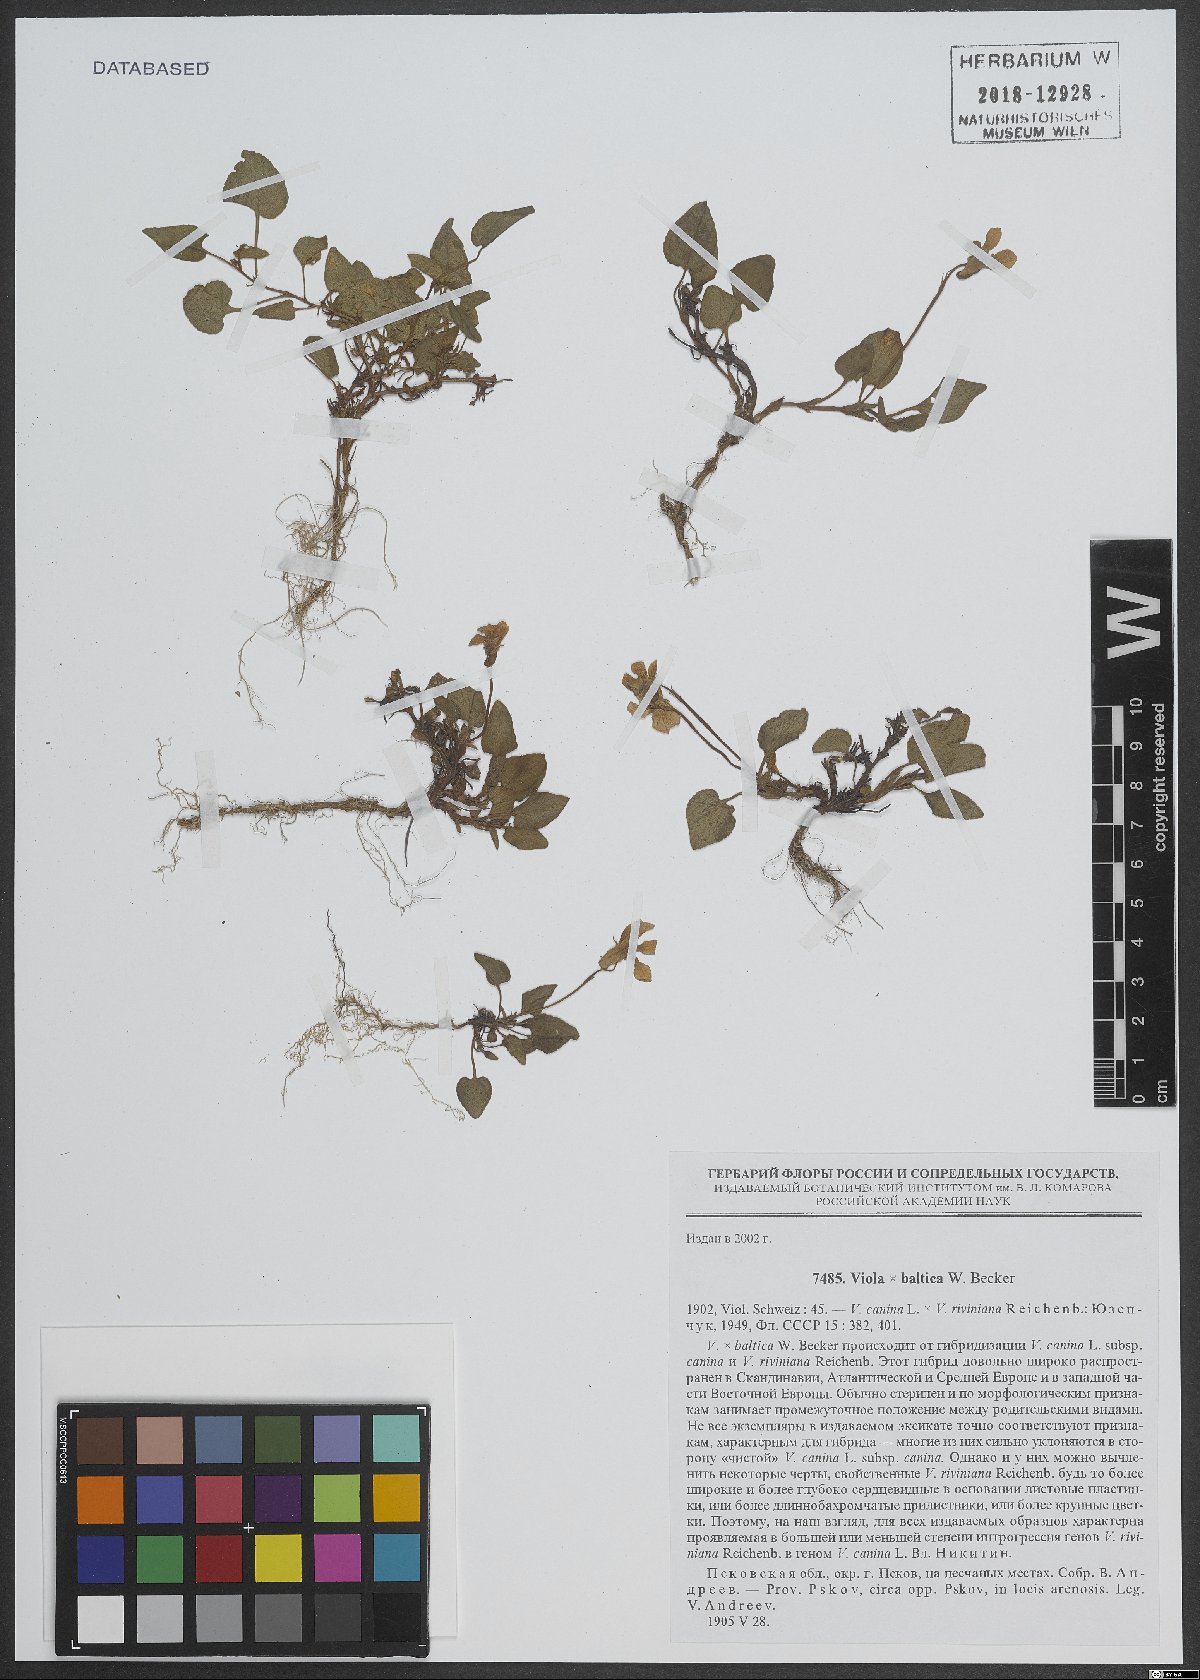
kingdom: Plantae
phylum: Tracheophyta
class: Magnoliopsida
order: Malpighiales
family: Violaceae
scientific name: Violaceae
